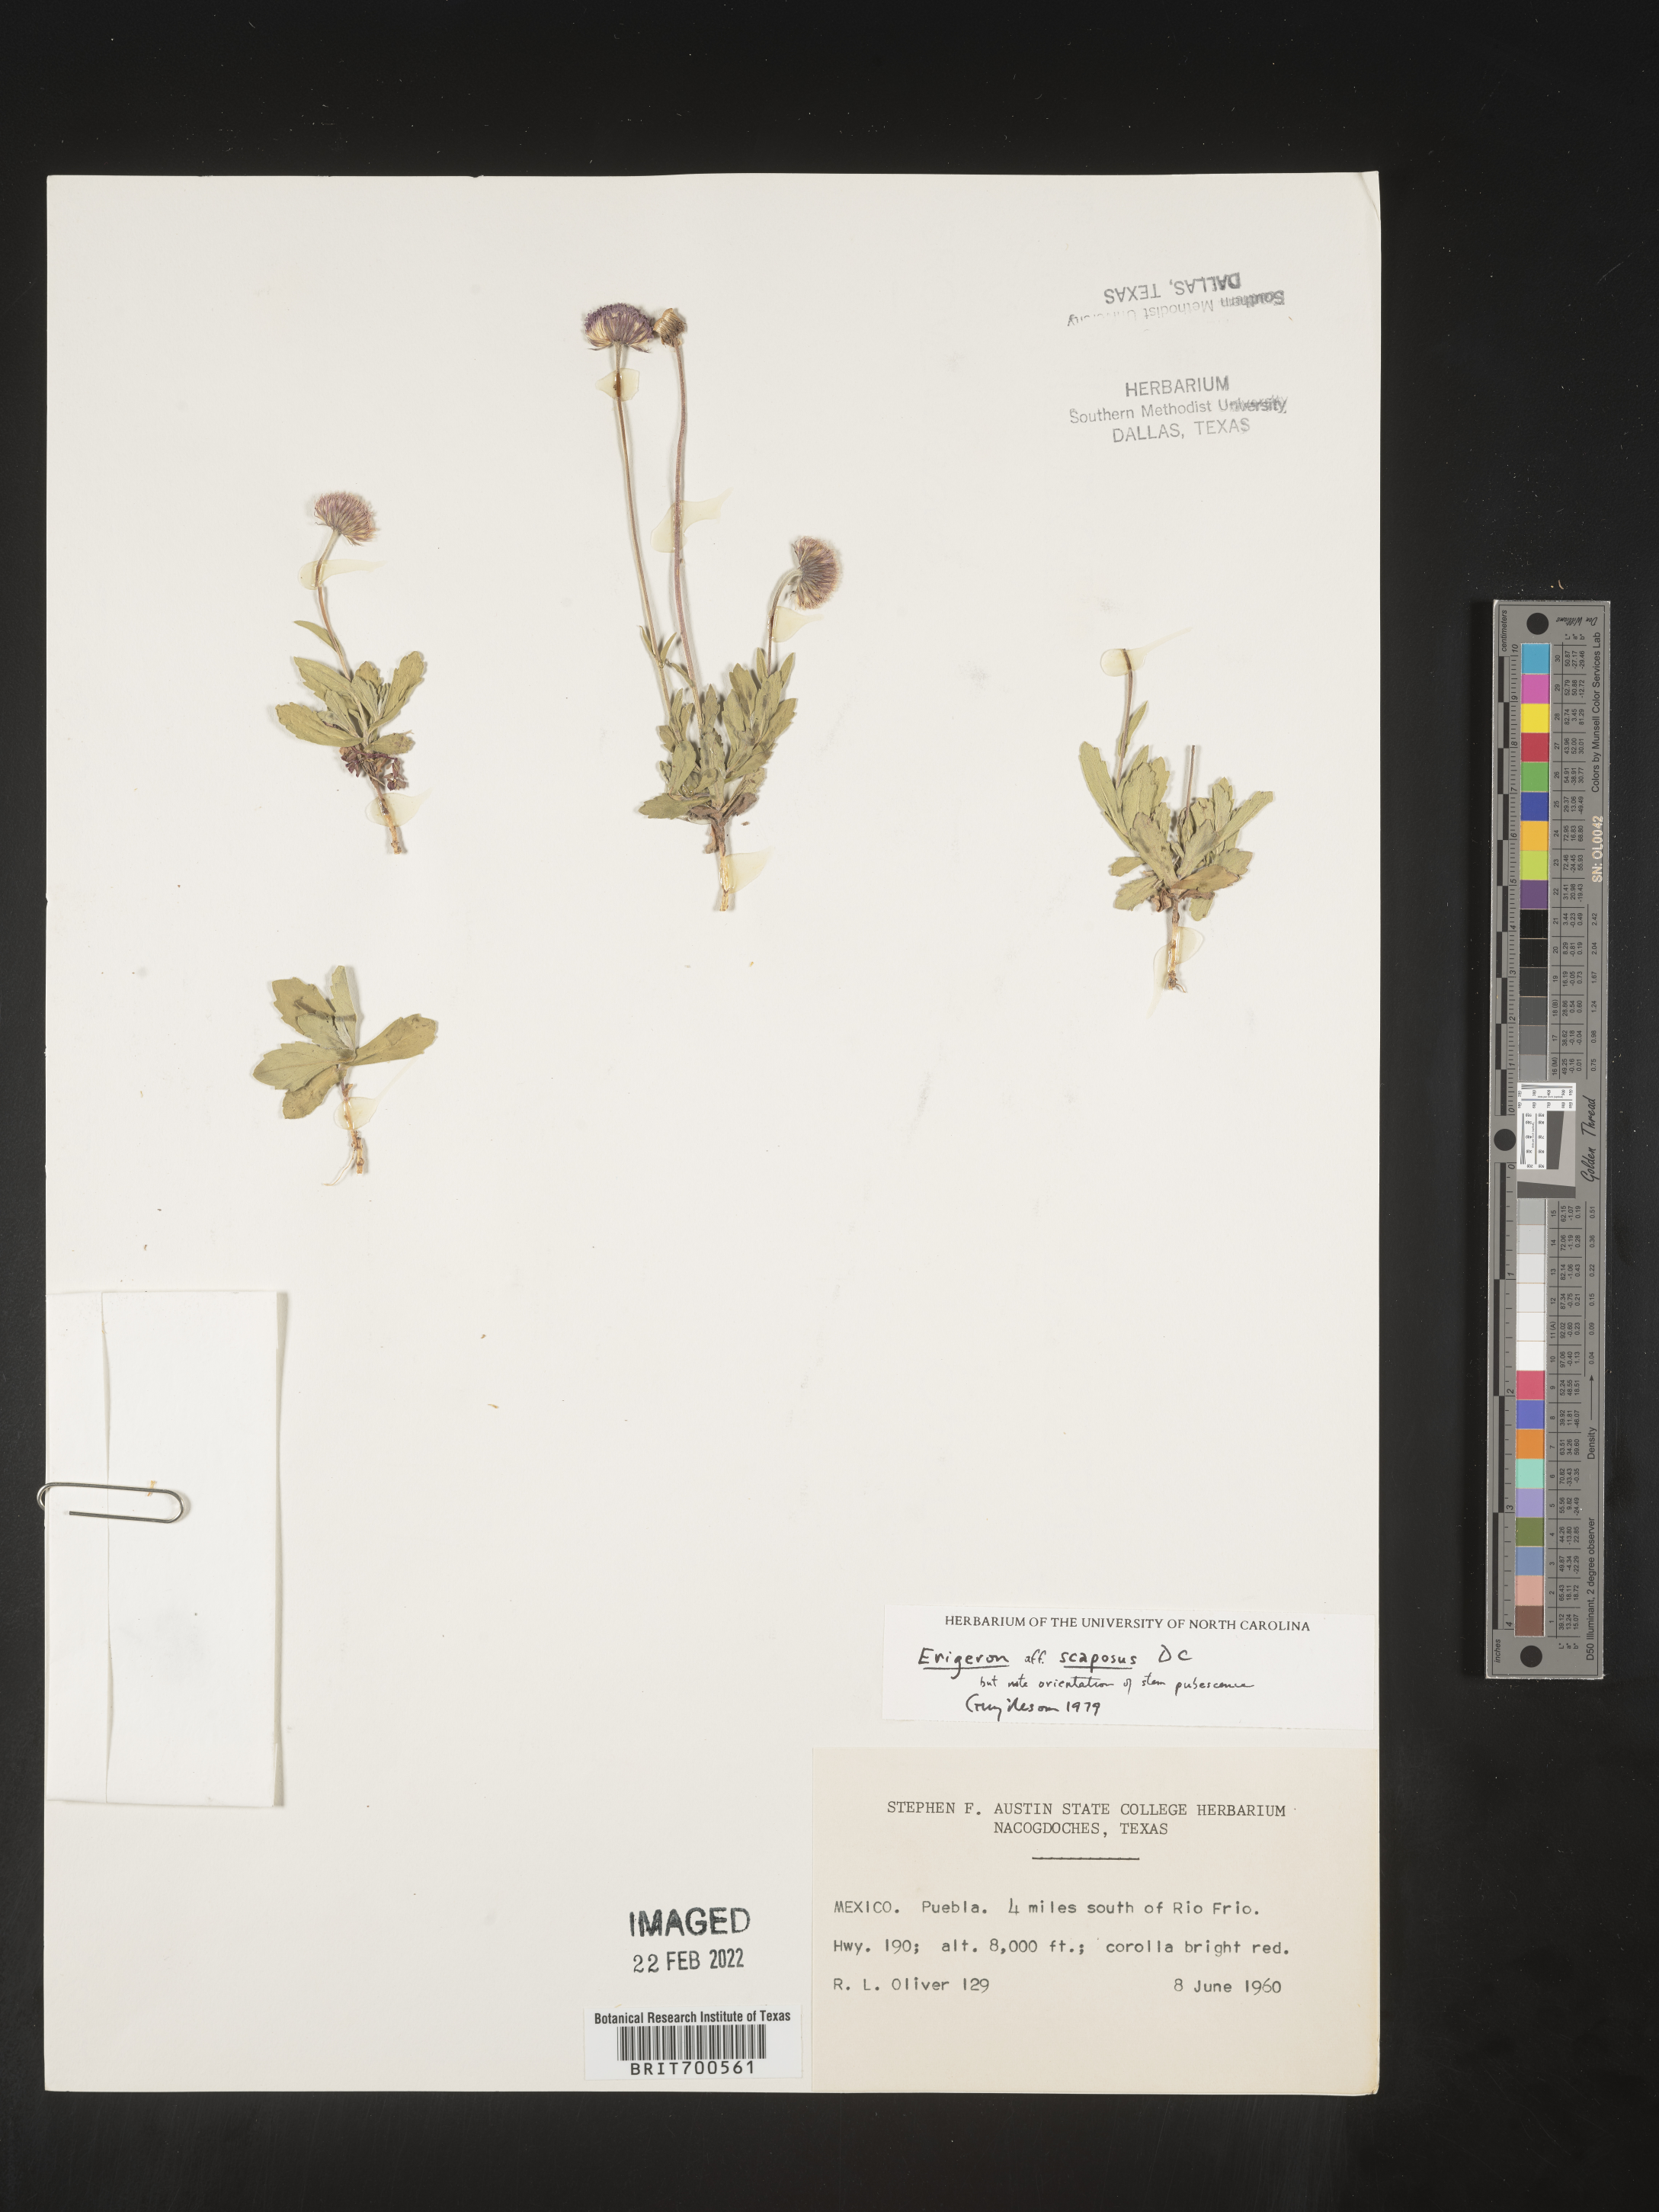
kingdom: Plantae
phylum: Tracheophyta
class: Magnoliopsida
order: Asterales
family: Asteraceae
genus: Erigeron
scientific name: Erigeron longipes
